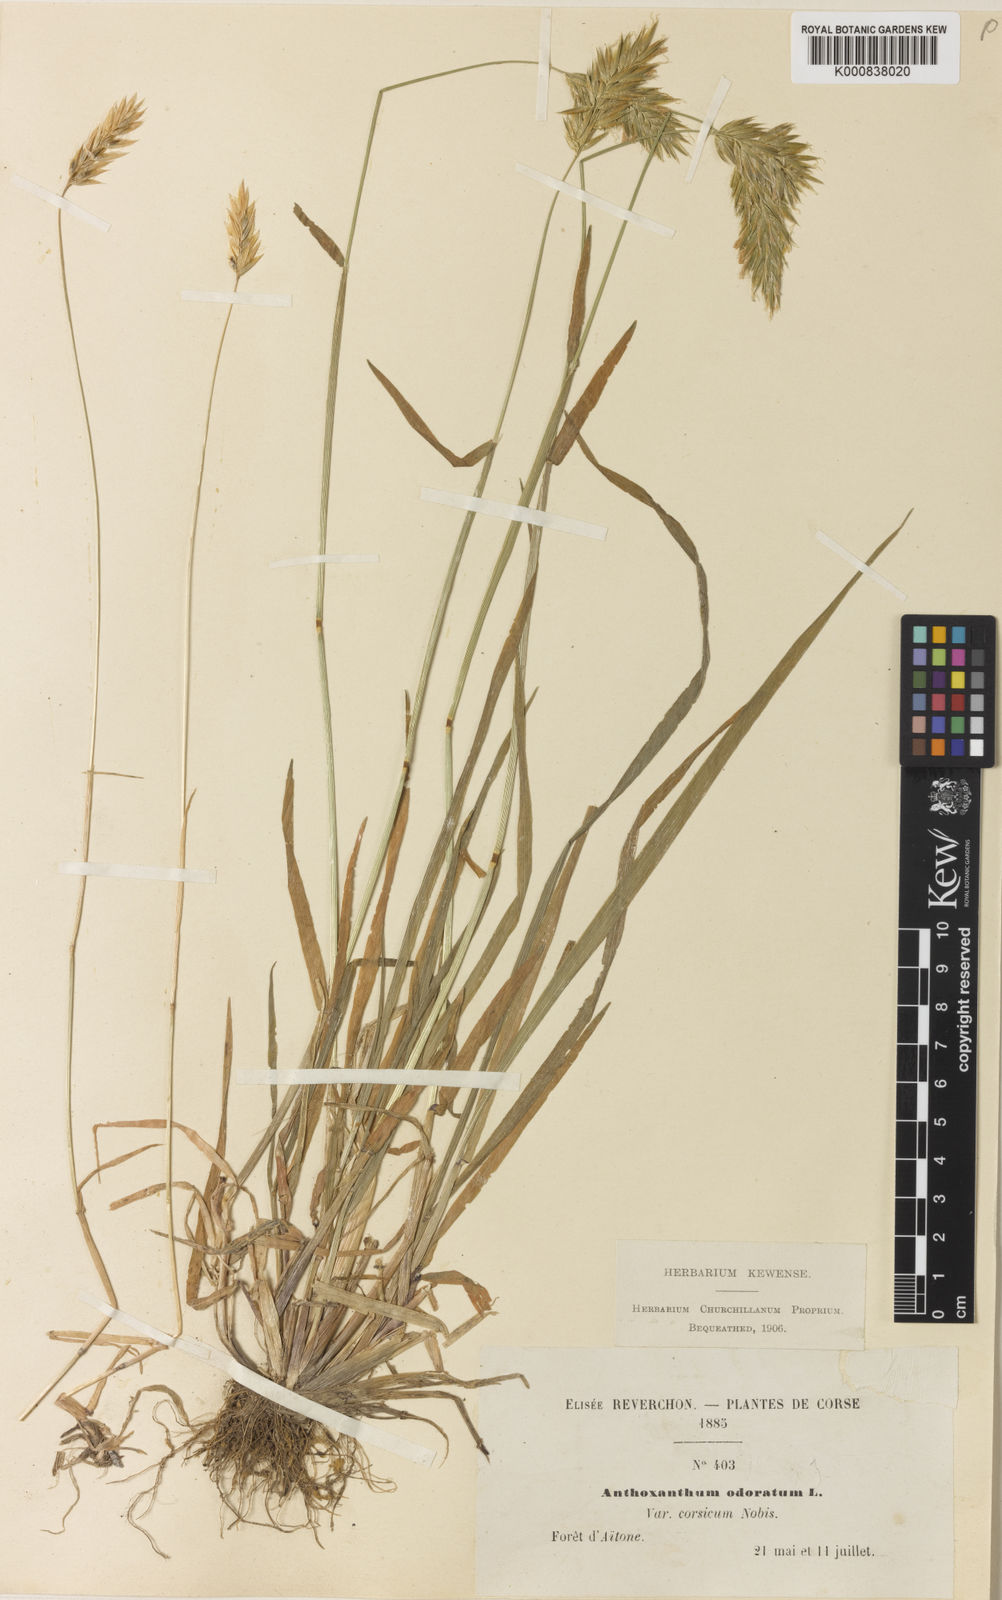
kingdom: Plantae
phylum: Tracheophyta
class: Liliopsida
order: Poales
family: Poaceae
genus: Anthoxanthum
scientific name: Anthoxanthum odoratum
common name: Sweet vernalgrass
